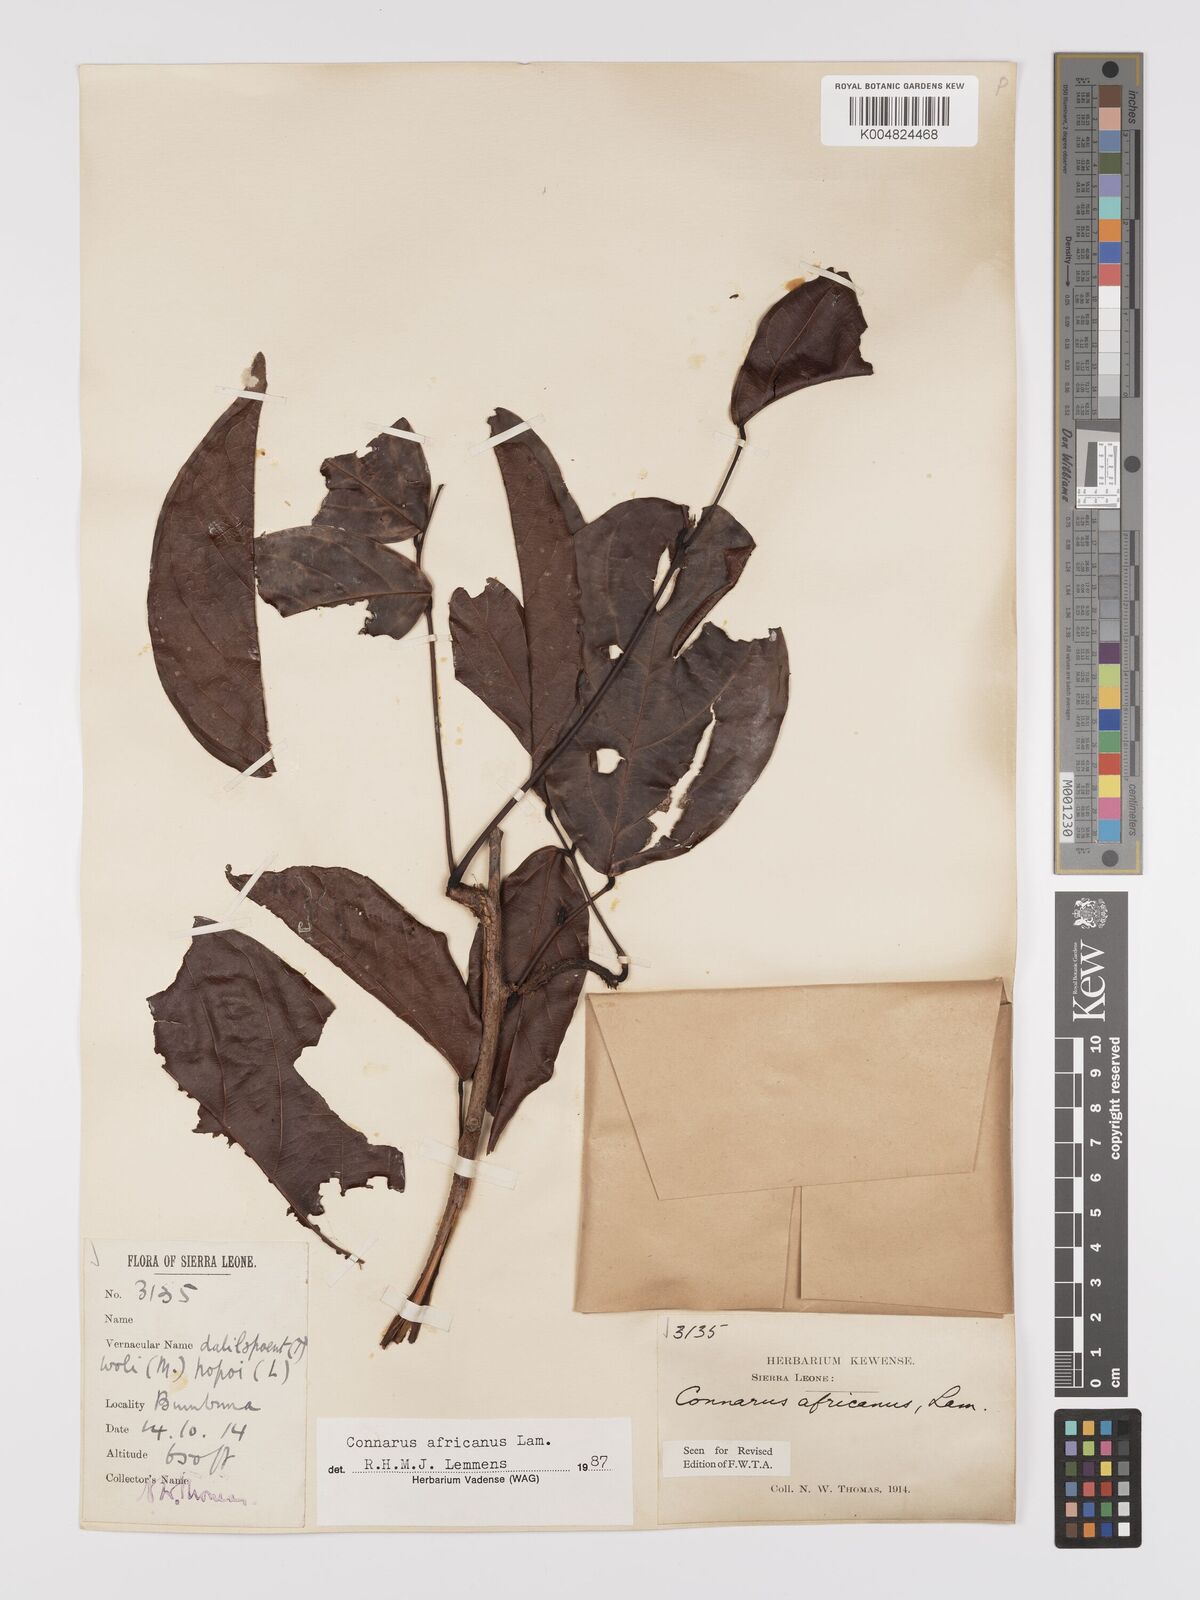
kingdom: Plantae
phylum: Tracheophyta
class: Magnoliopsida
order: Oxalidales
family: Connaraceae
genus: Connarus
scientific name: Connarus africanus
